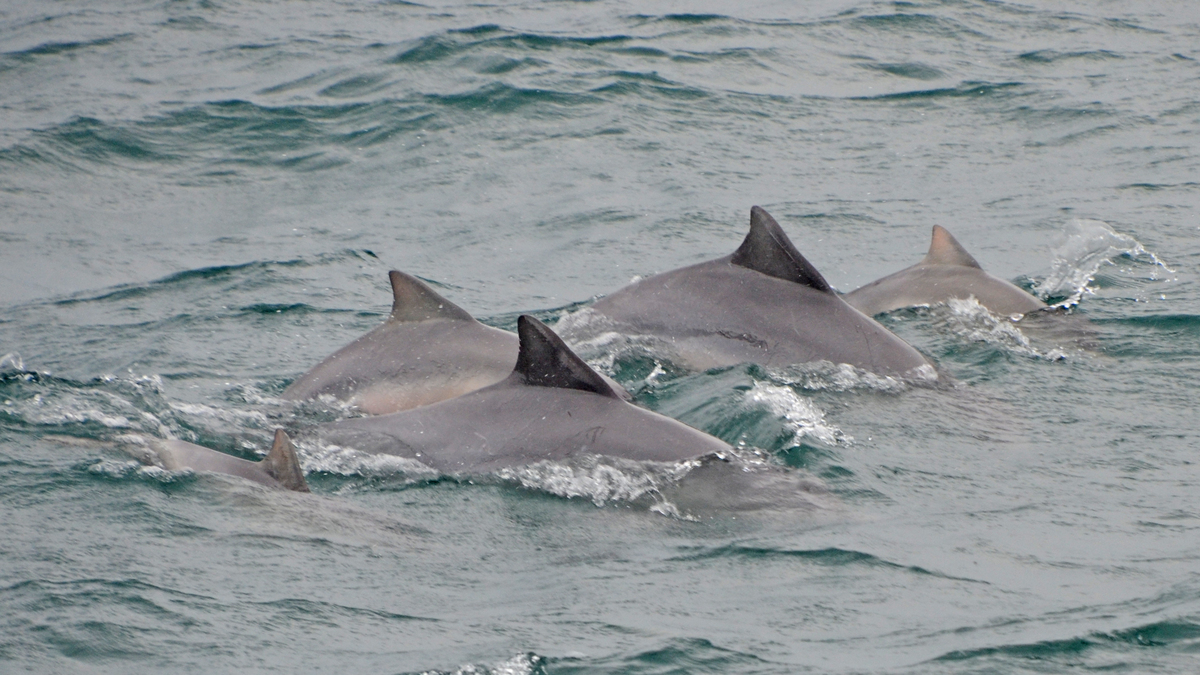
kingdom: Animalia
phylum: Chordata
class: Mammalia
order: Cetacea
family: Delphinidae
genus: Sotalia
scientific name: Sotalia guianensis
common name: Guiana dolphin
